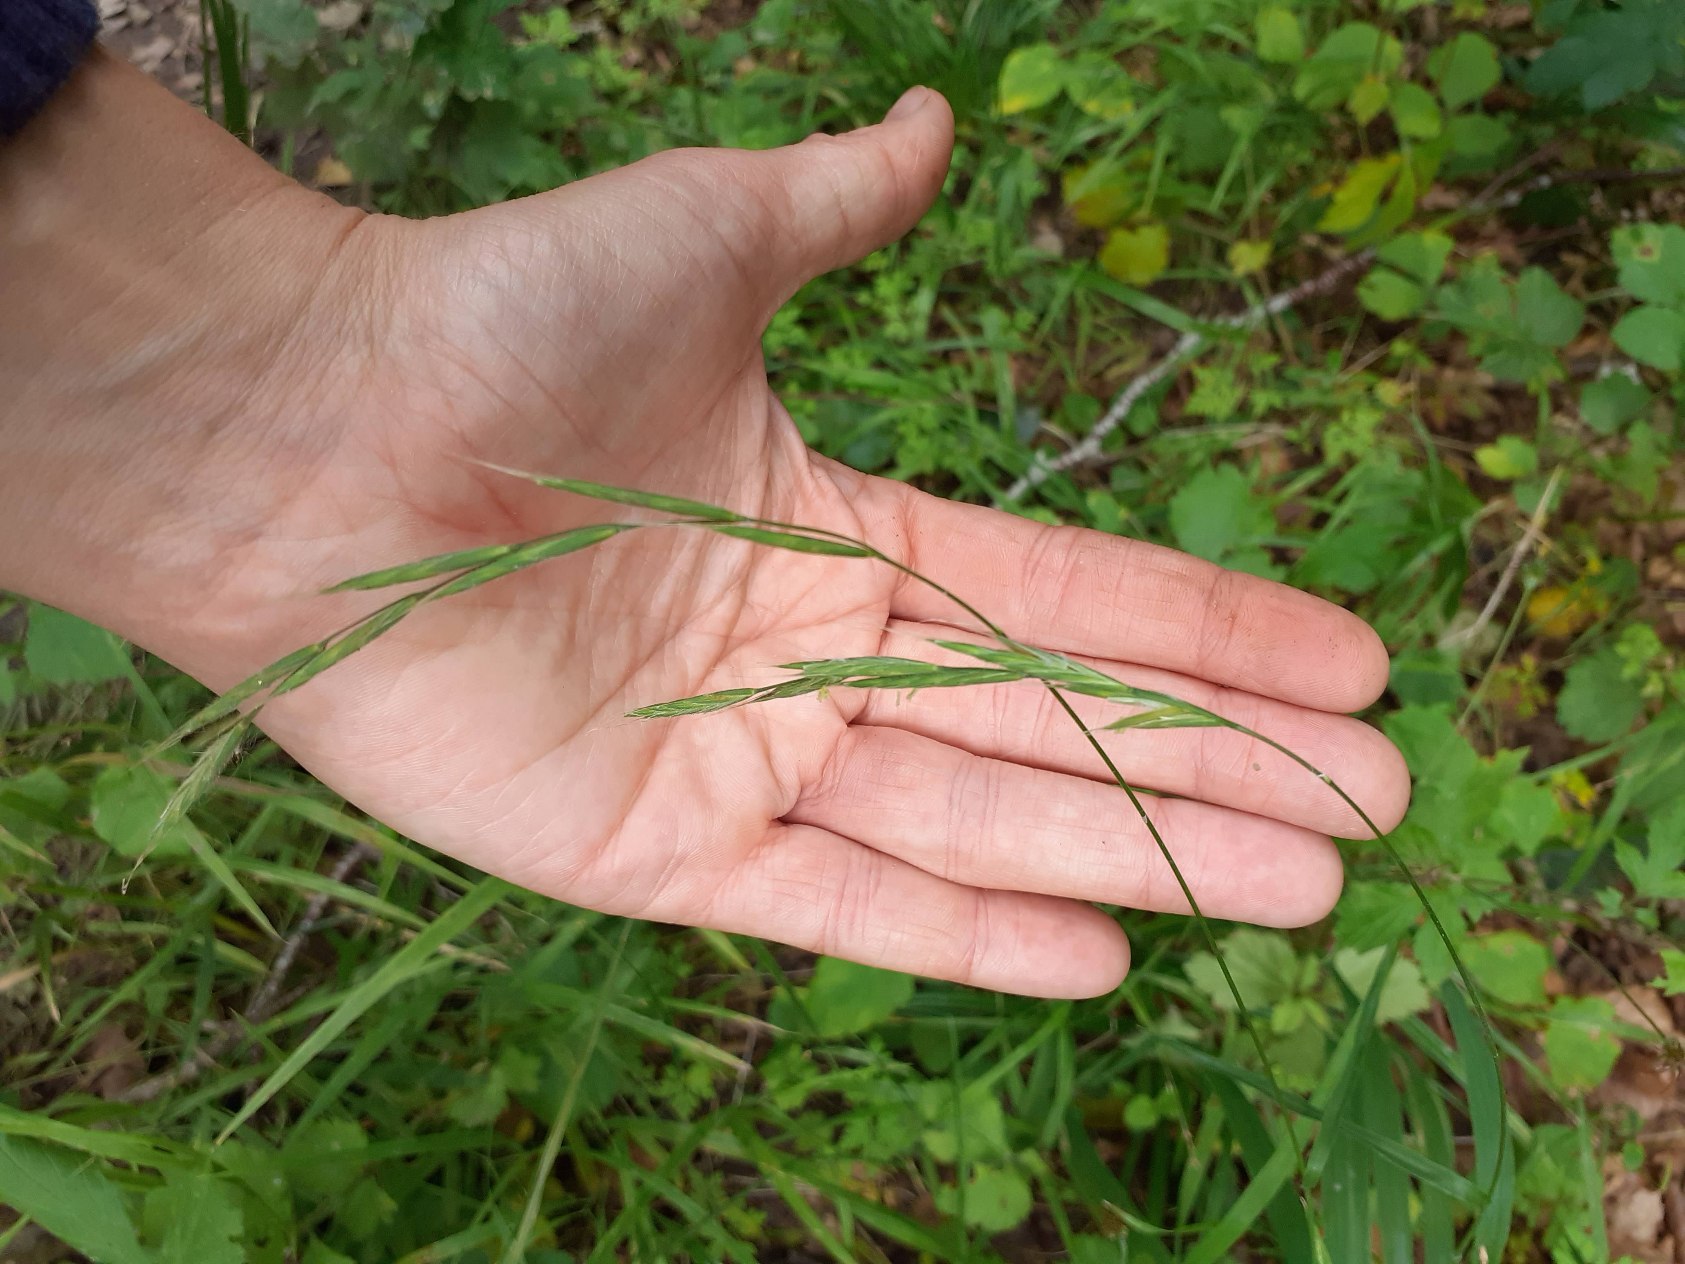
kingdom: Plantae
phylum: Tracheophyta
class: Liliopsida
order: Poales
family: Poaceae
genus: Brachypodium
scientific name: Brachypodium sylvaticum
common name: Skov-stilkaks
